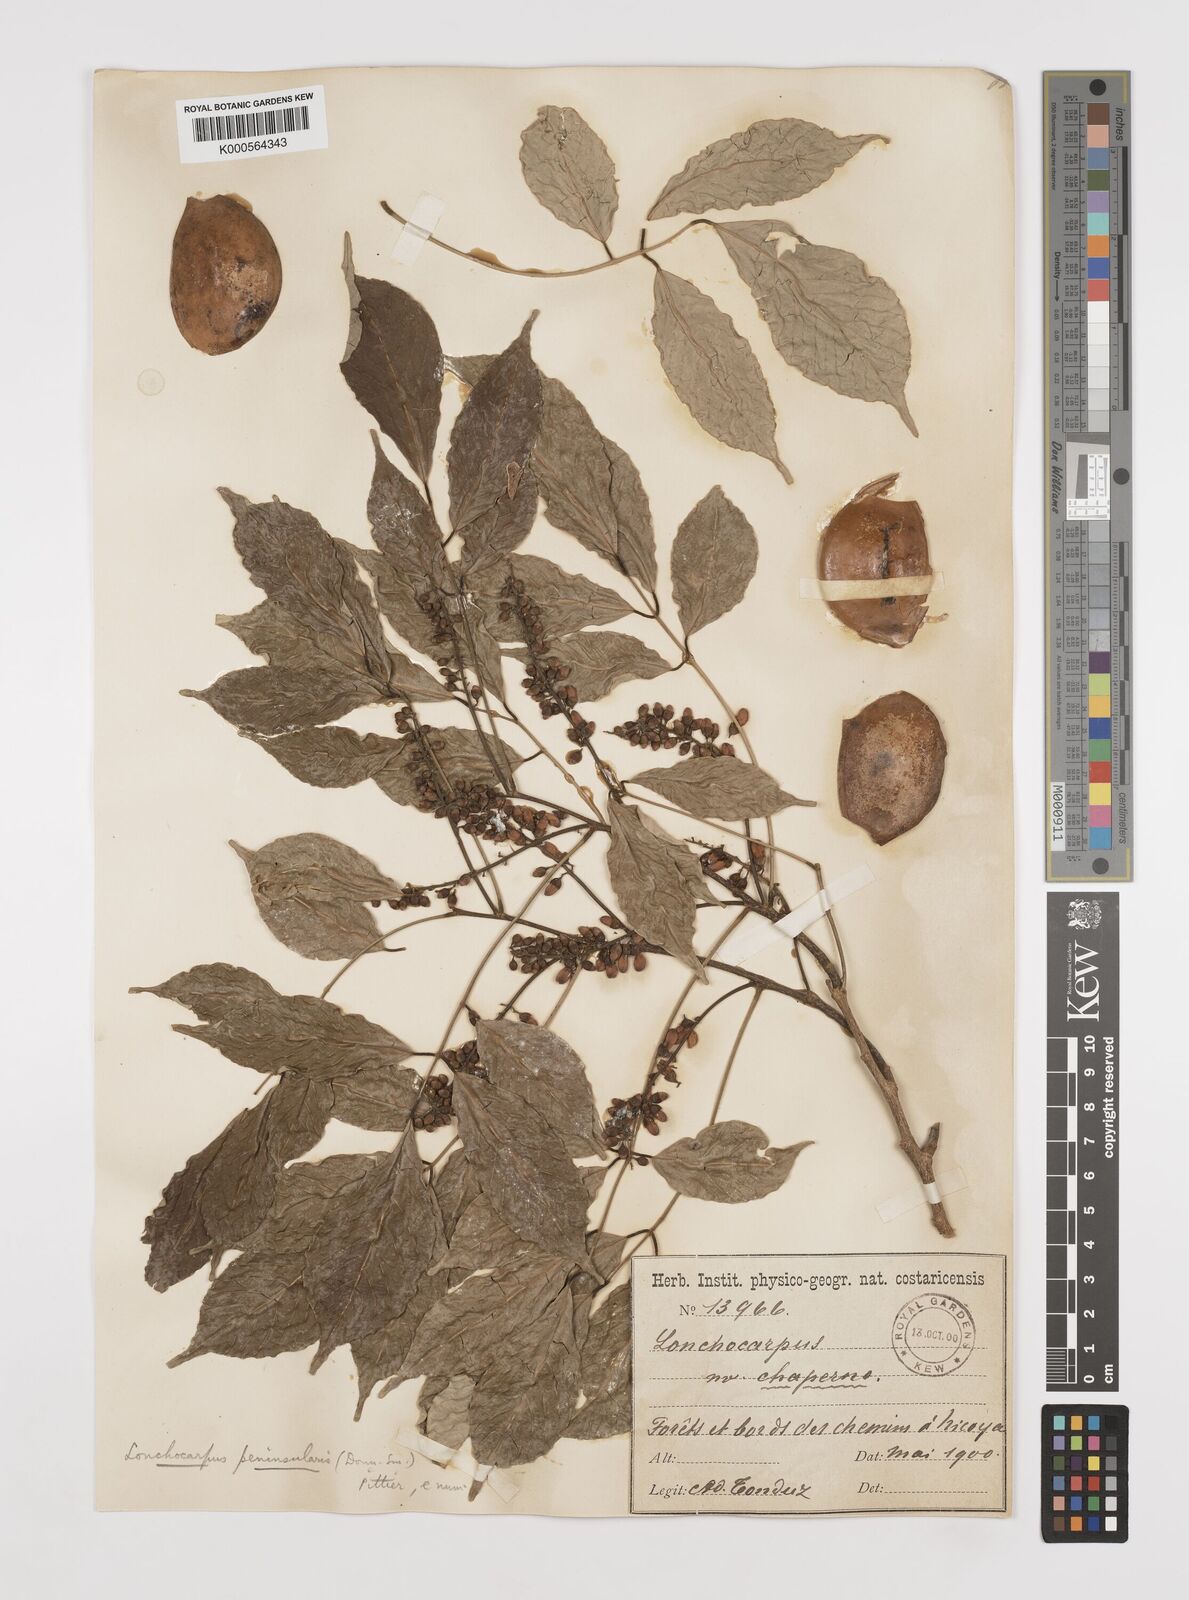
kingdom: Plantae
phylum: Tracheophyta
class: Magnoliopsida
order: Fabales
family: Fabaceae
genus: Lonchocarpus
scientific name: Lonchocarpus acuminatus
